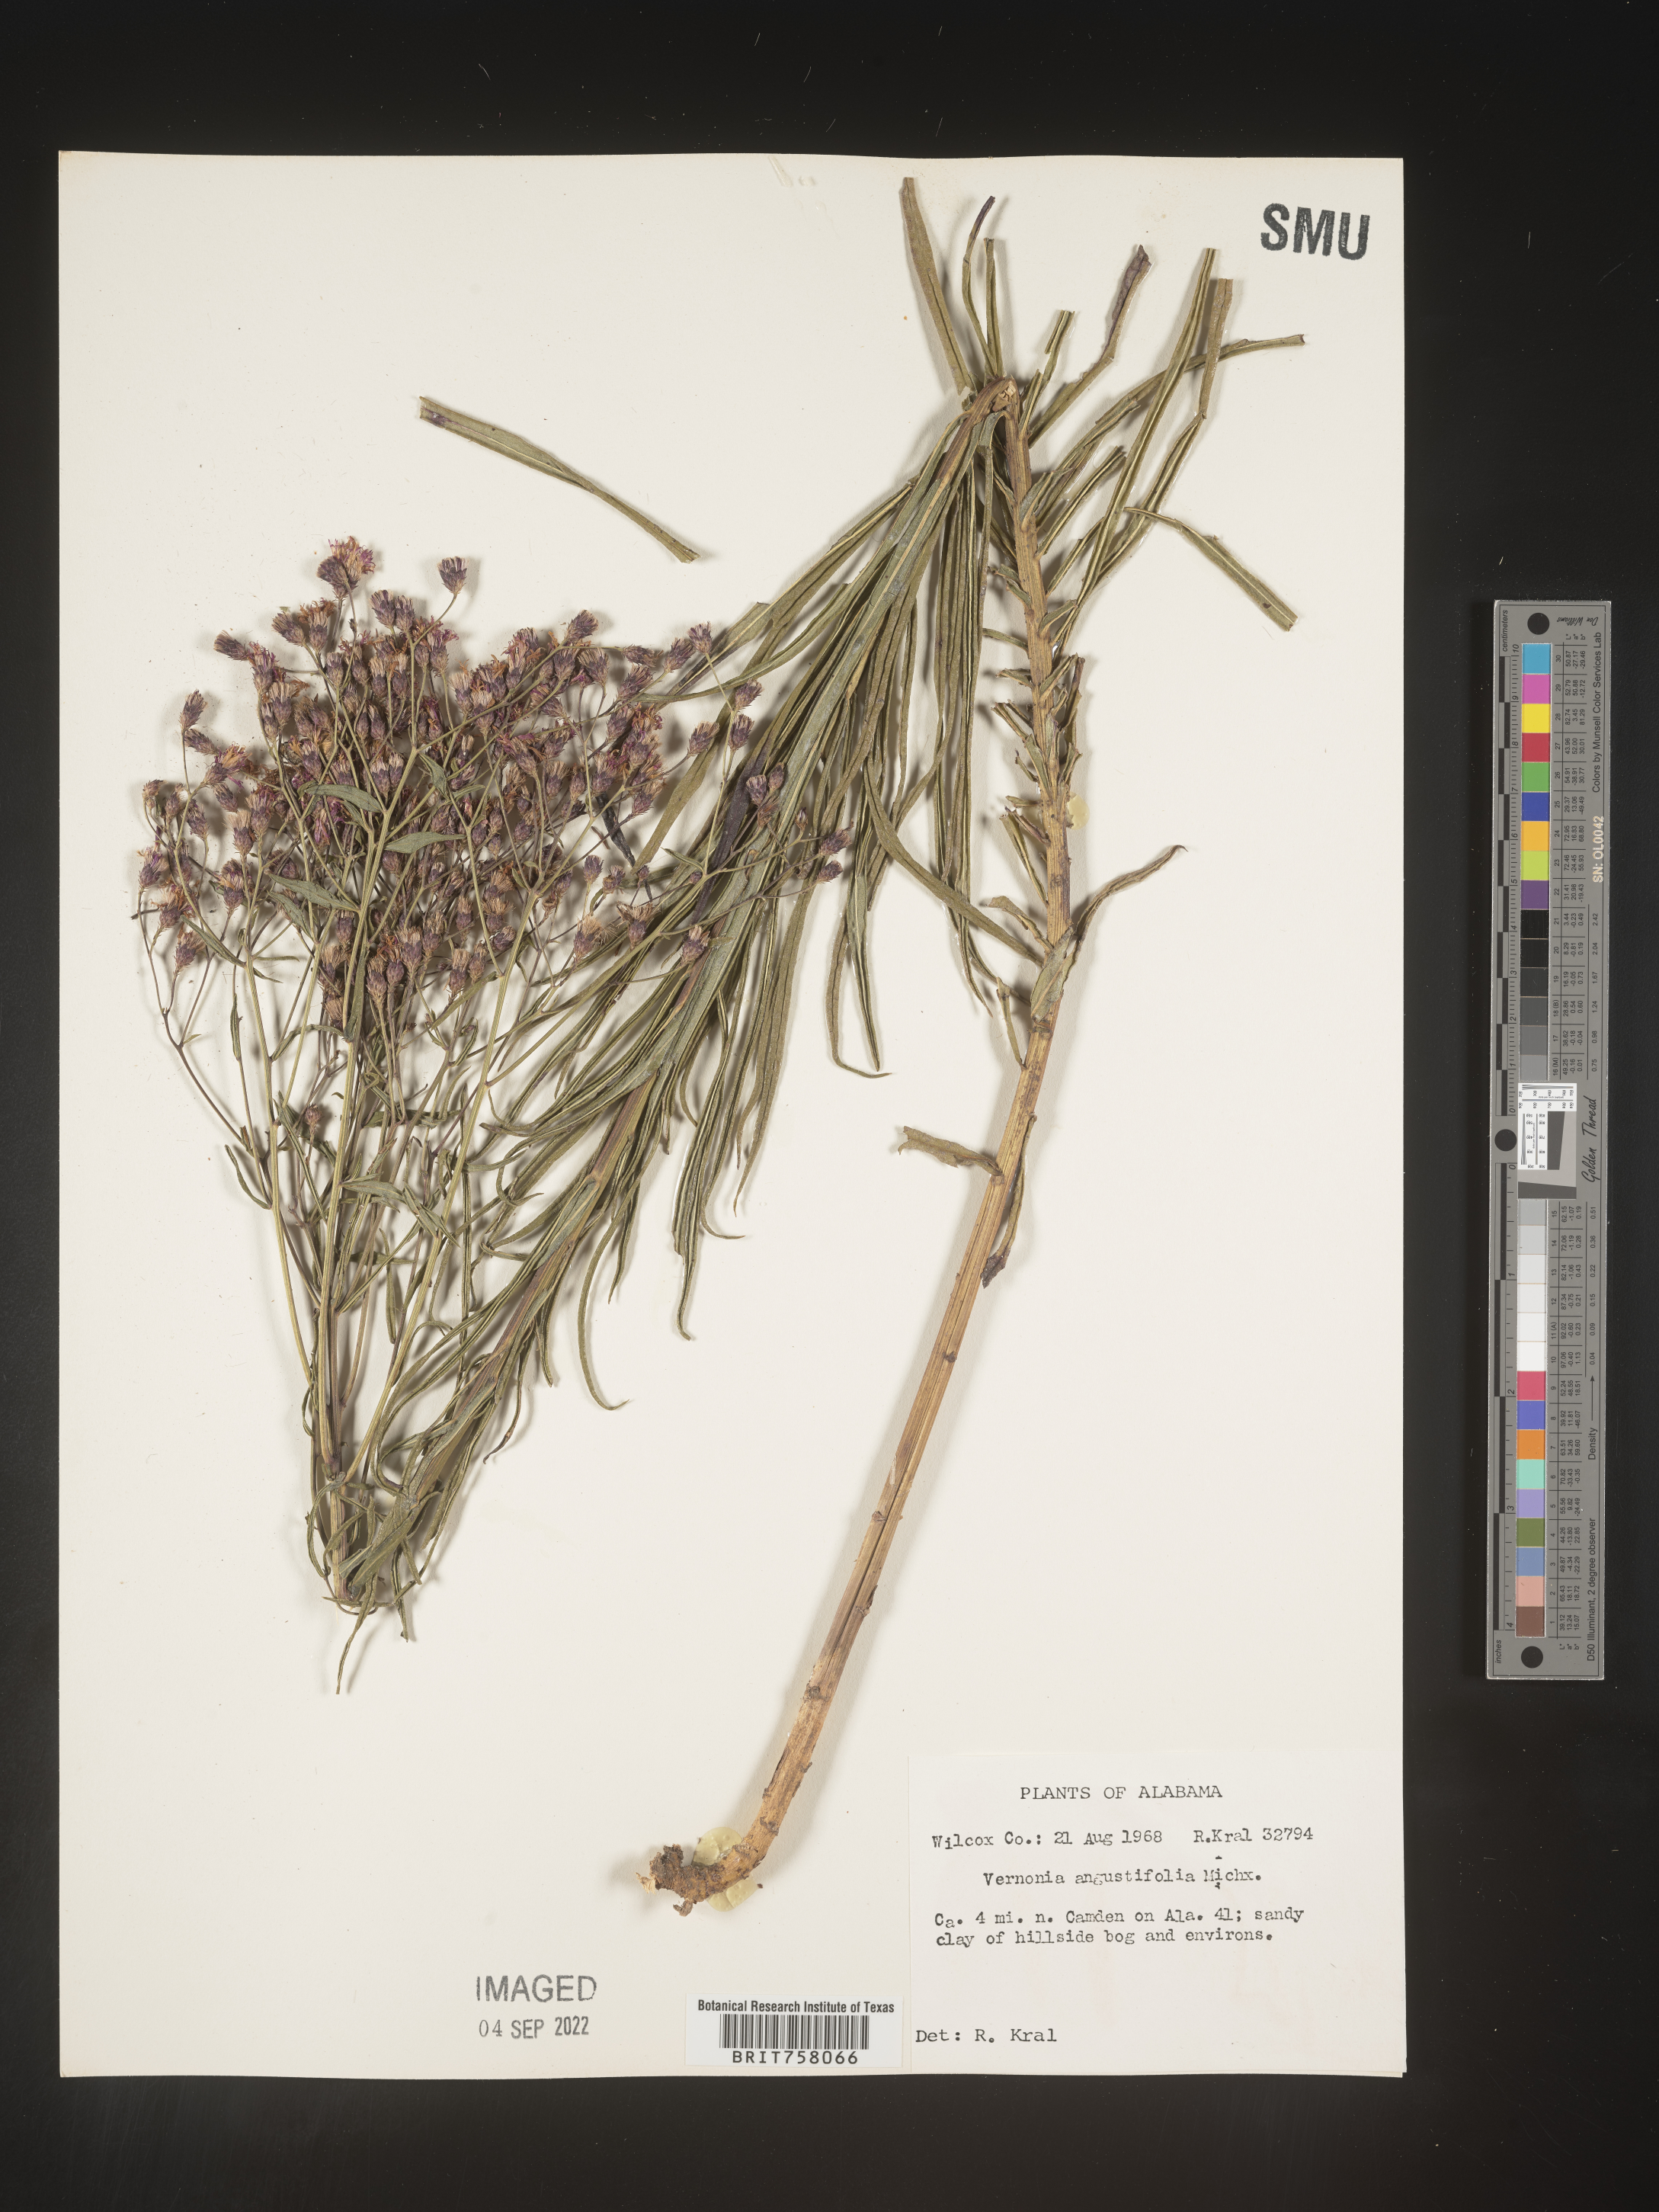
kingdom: Plantae
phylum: Tracheophyta
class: Magnoliopsida
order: Asterales
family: Asteraceae
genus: Vernonia
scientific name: Vernonia angustifolia
